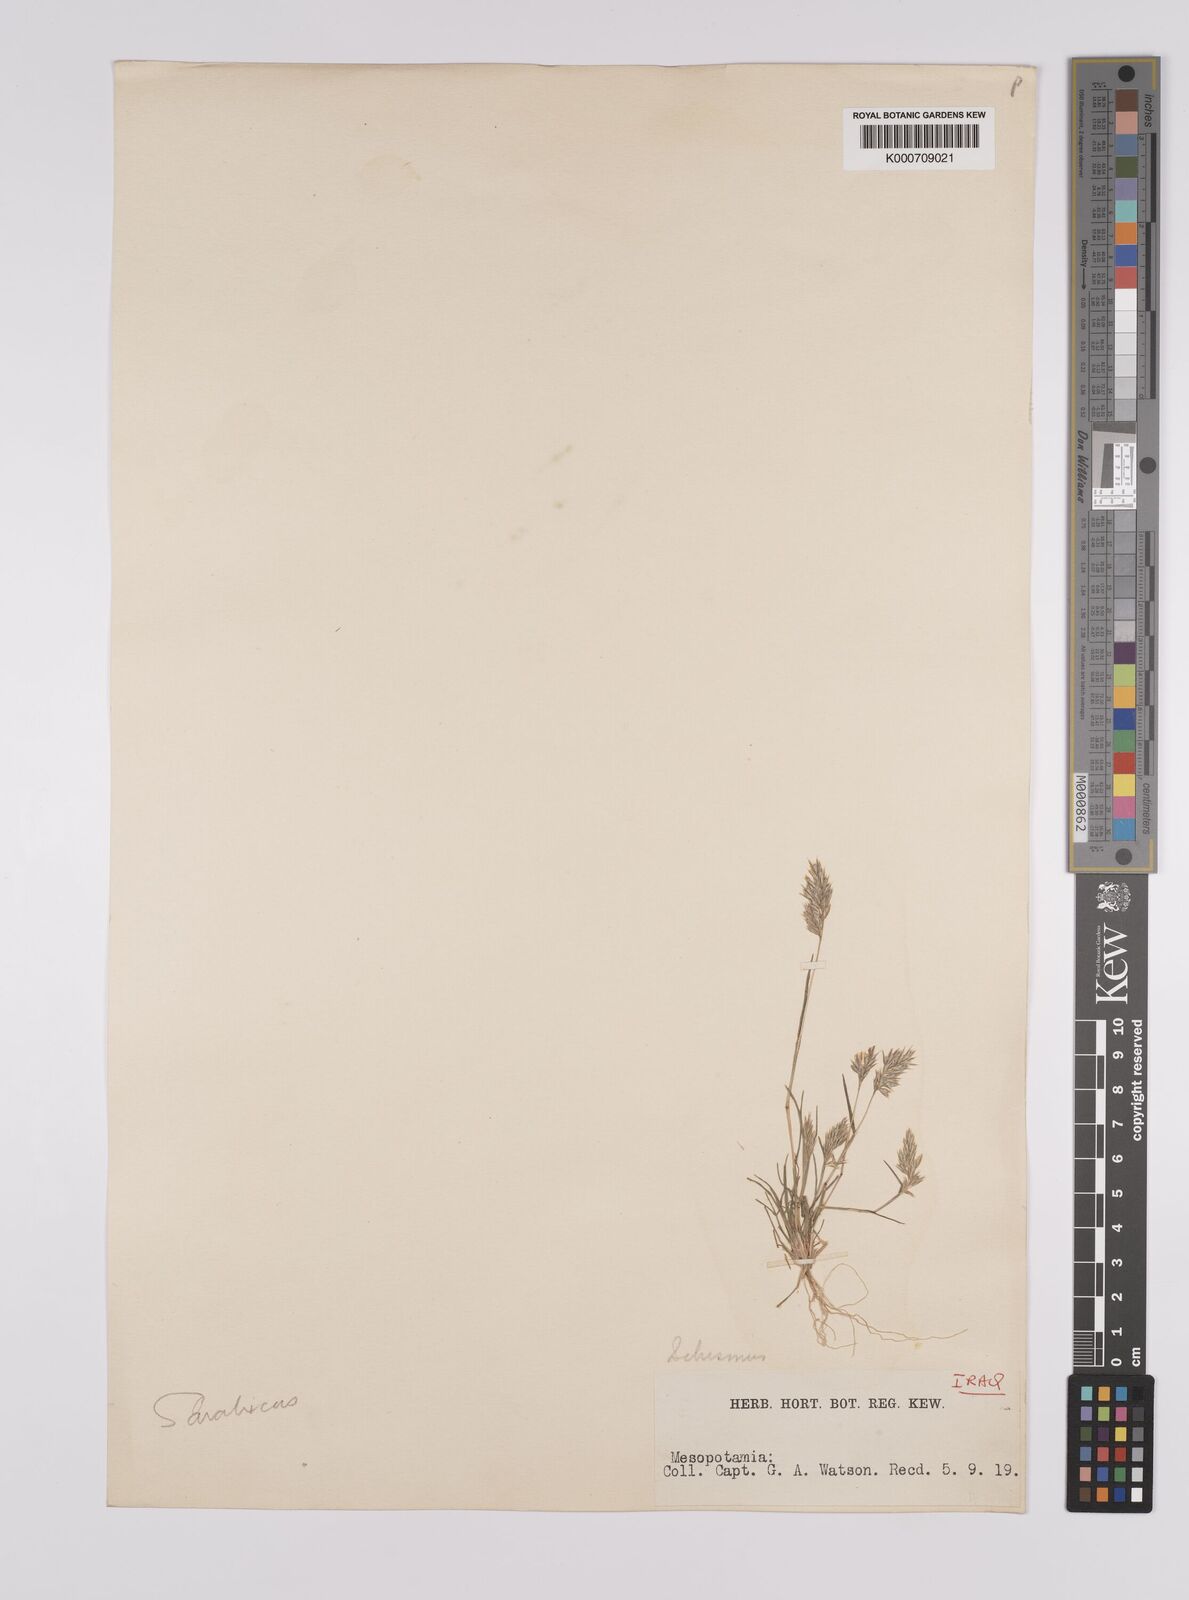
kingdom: Plantae
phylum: Tracheophyta
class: Liliopsida
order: Poales
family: Poaceae
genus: Schismus
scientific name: Schismus arabicus
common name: Arabian schismus
